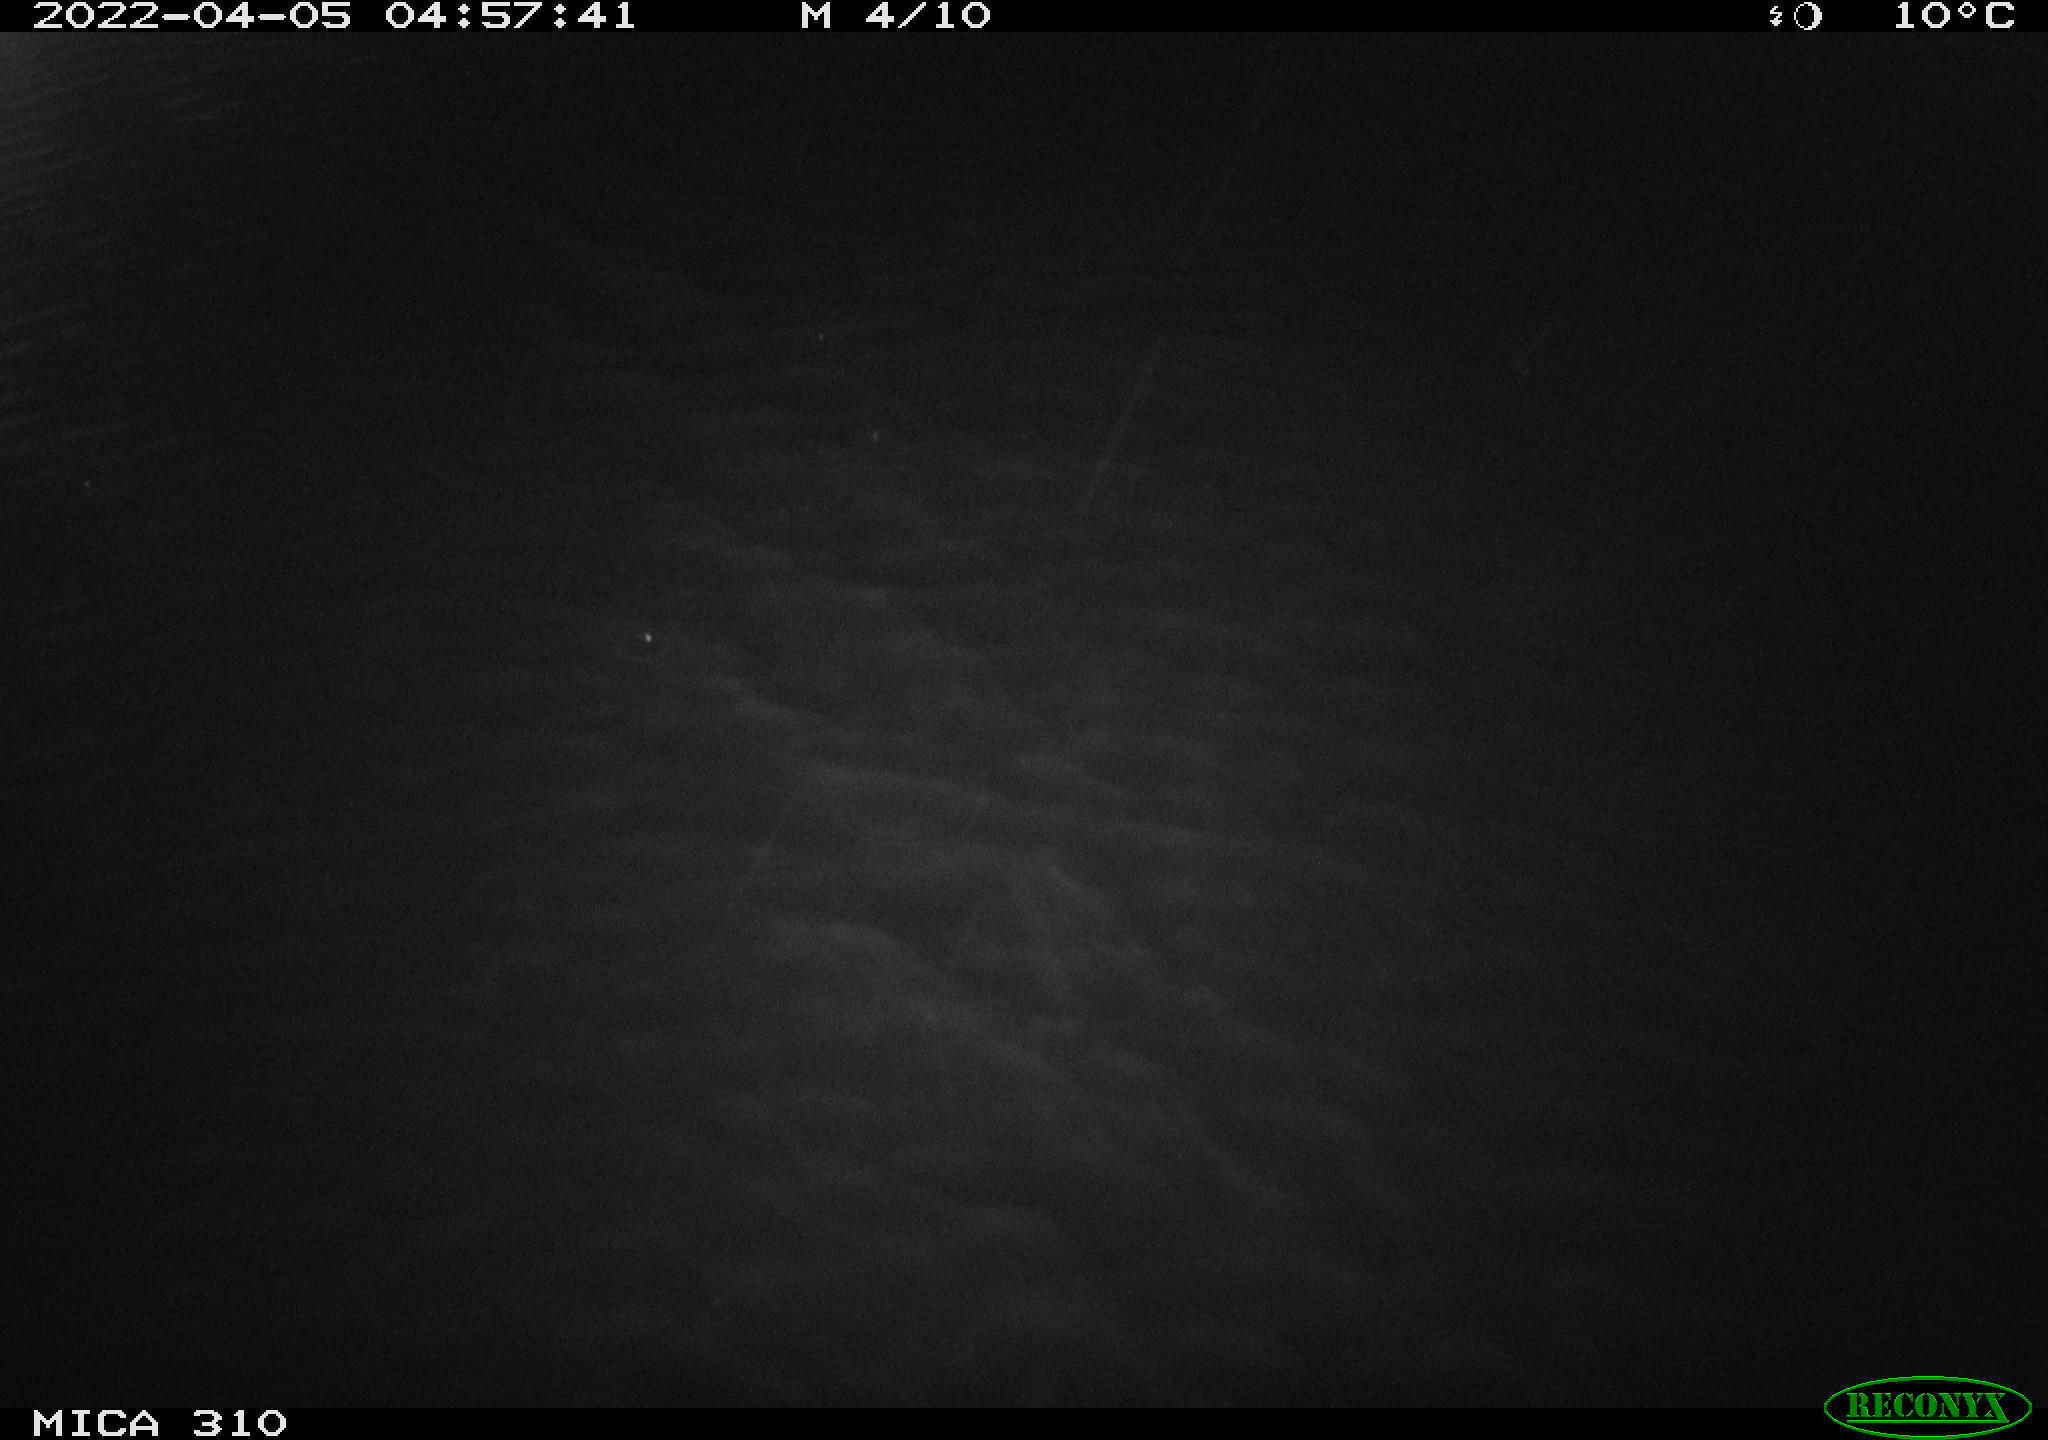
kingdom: Animalia
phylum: Chordata
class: Mammalia
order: Rodentia
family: Cricetidae
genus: Ondatra
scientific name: Ondatra zibethicus
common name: Muskrat
